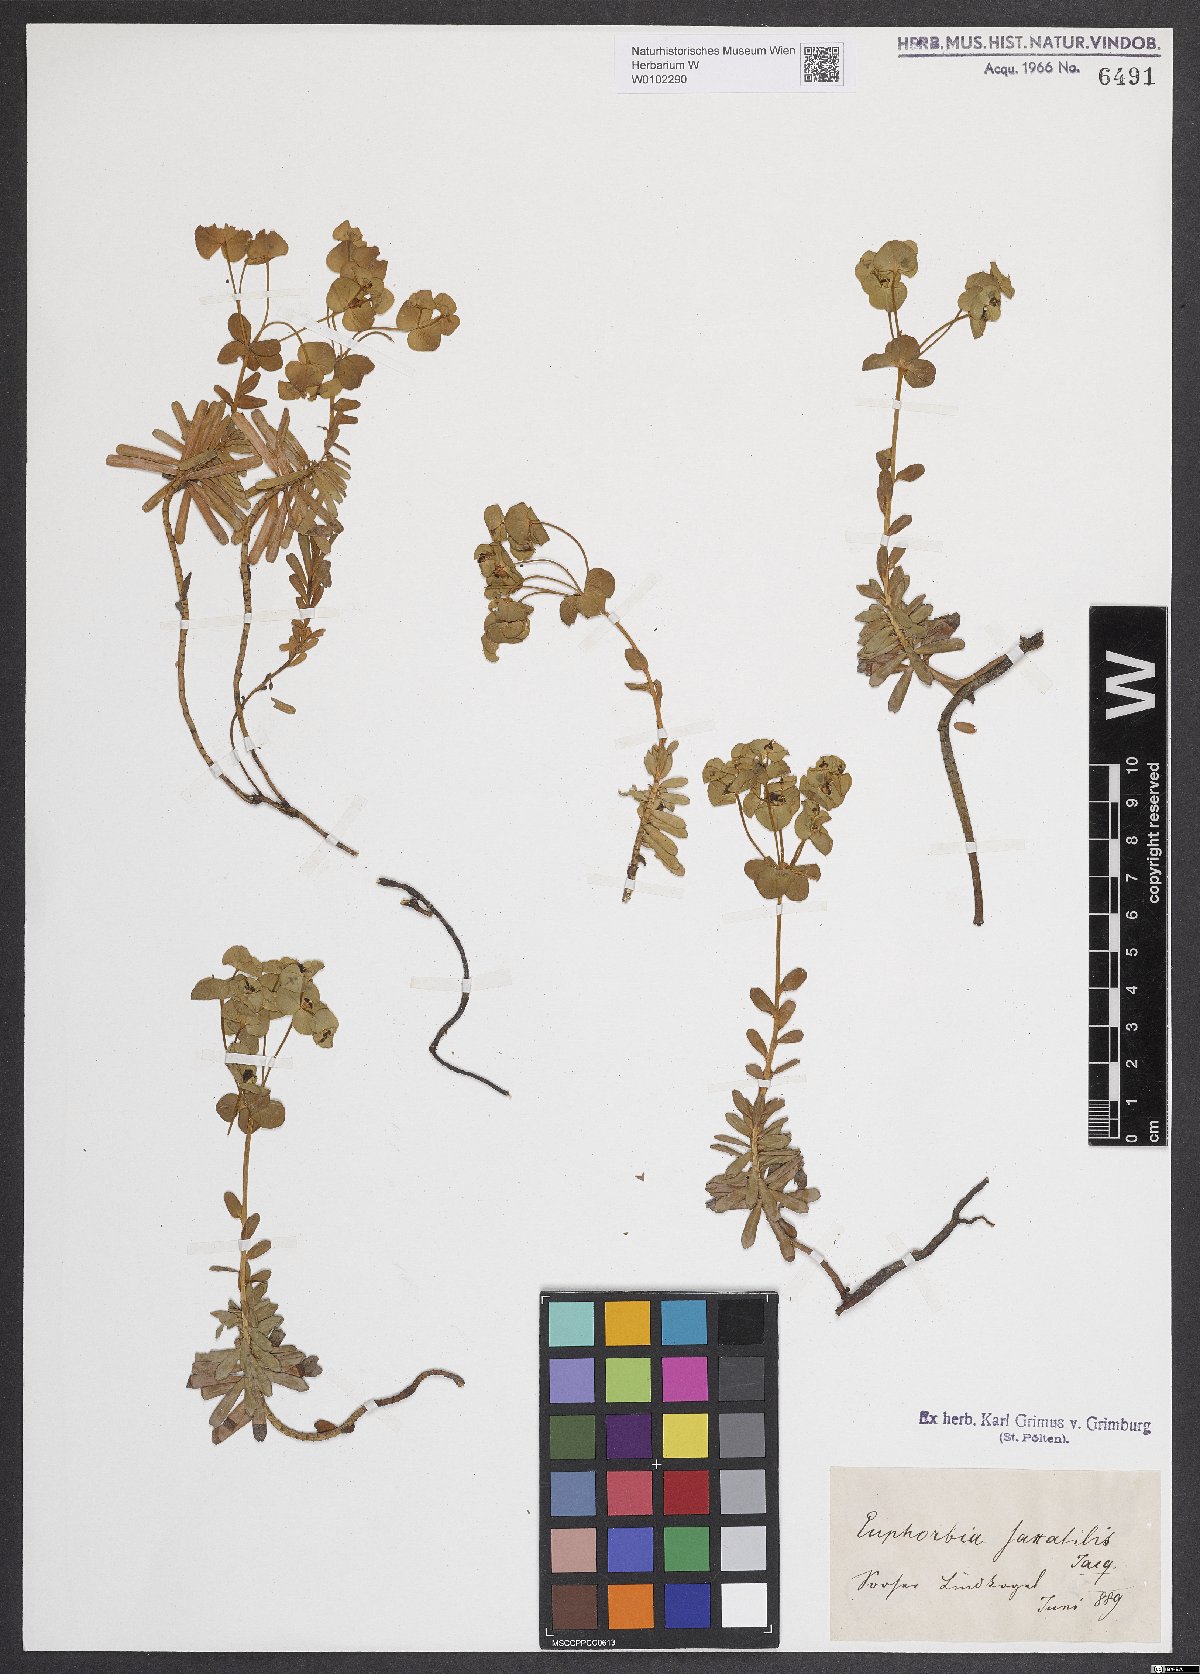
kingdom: Plantae
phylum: Tracheophyta
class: Magnoliopsida
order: Malpighiales
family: Euphorbiaceae
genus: Euphorbia
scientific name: Euphorbia saxatilis
